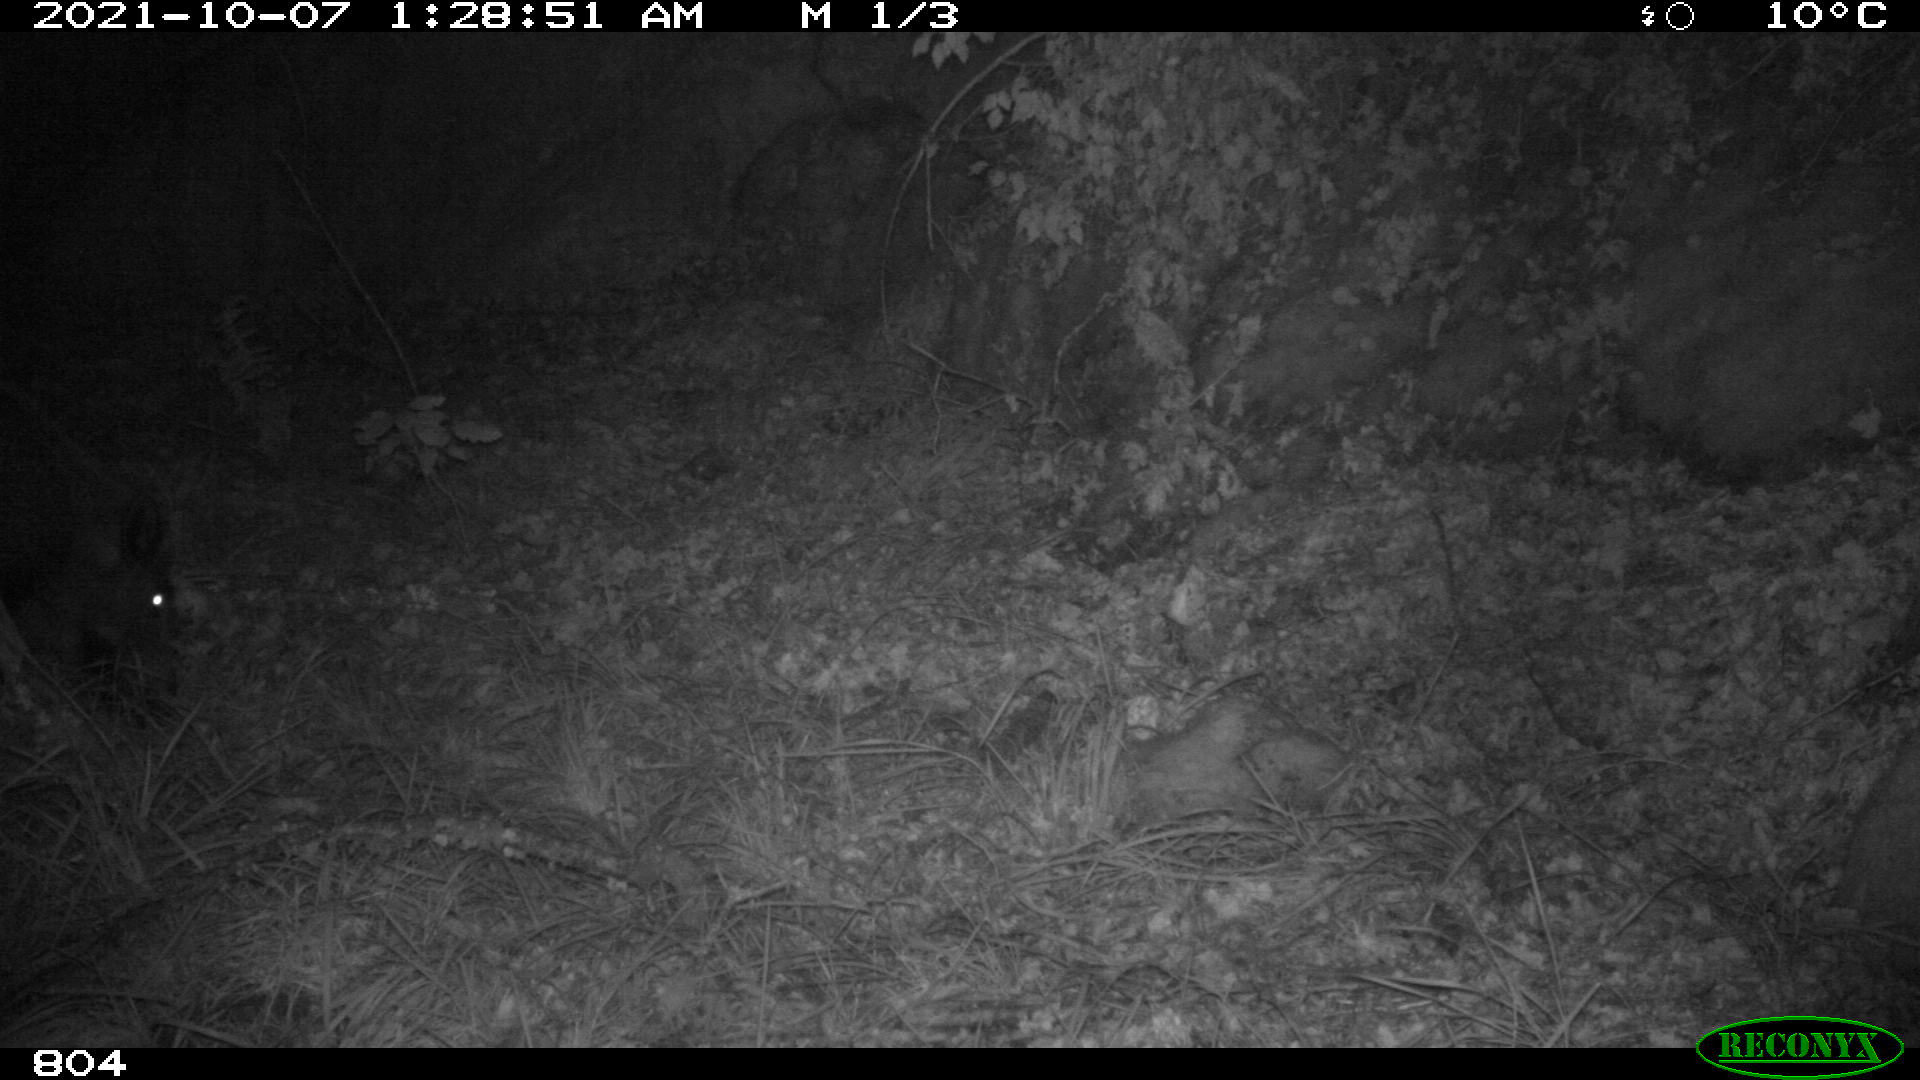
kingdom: Animalia
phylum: Chordata
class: Mammalia
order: Artiodactyla
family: Suidae
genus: Sus
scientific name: Sus scrofa
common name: Wild boar
